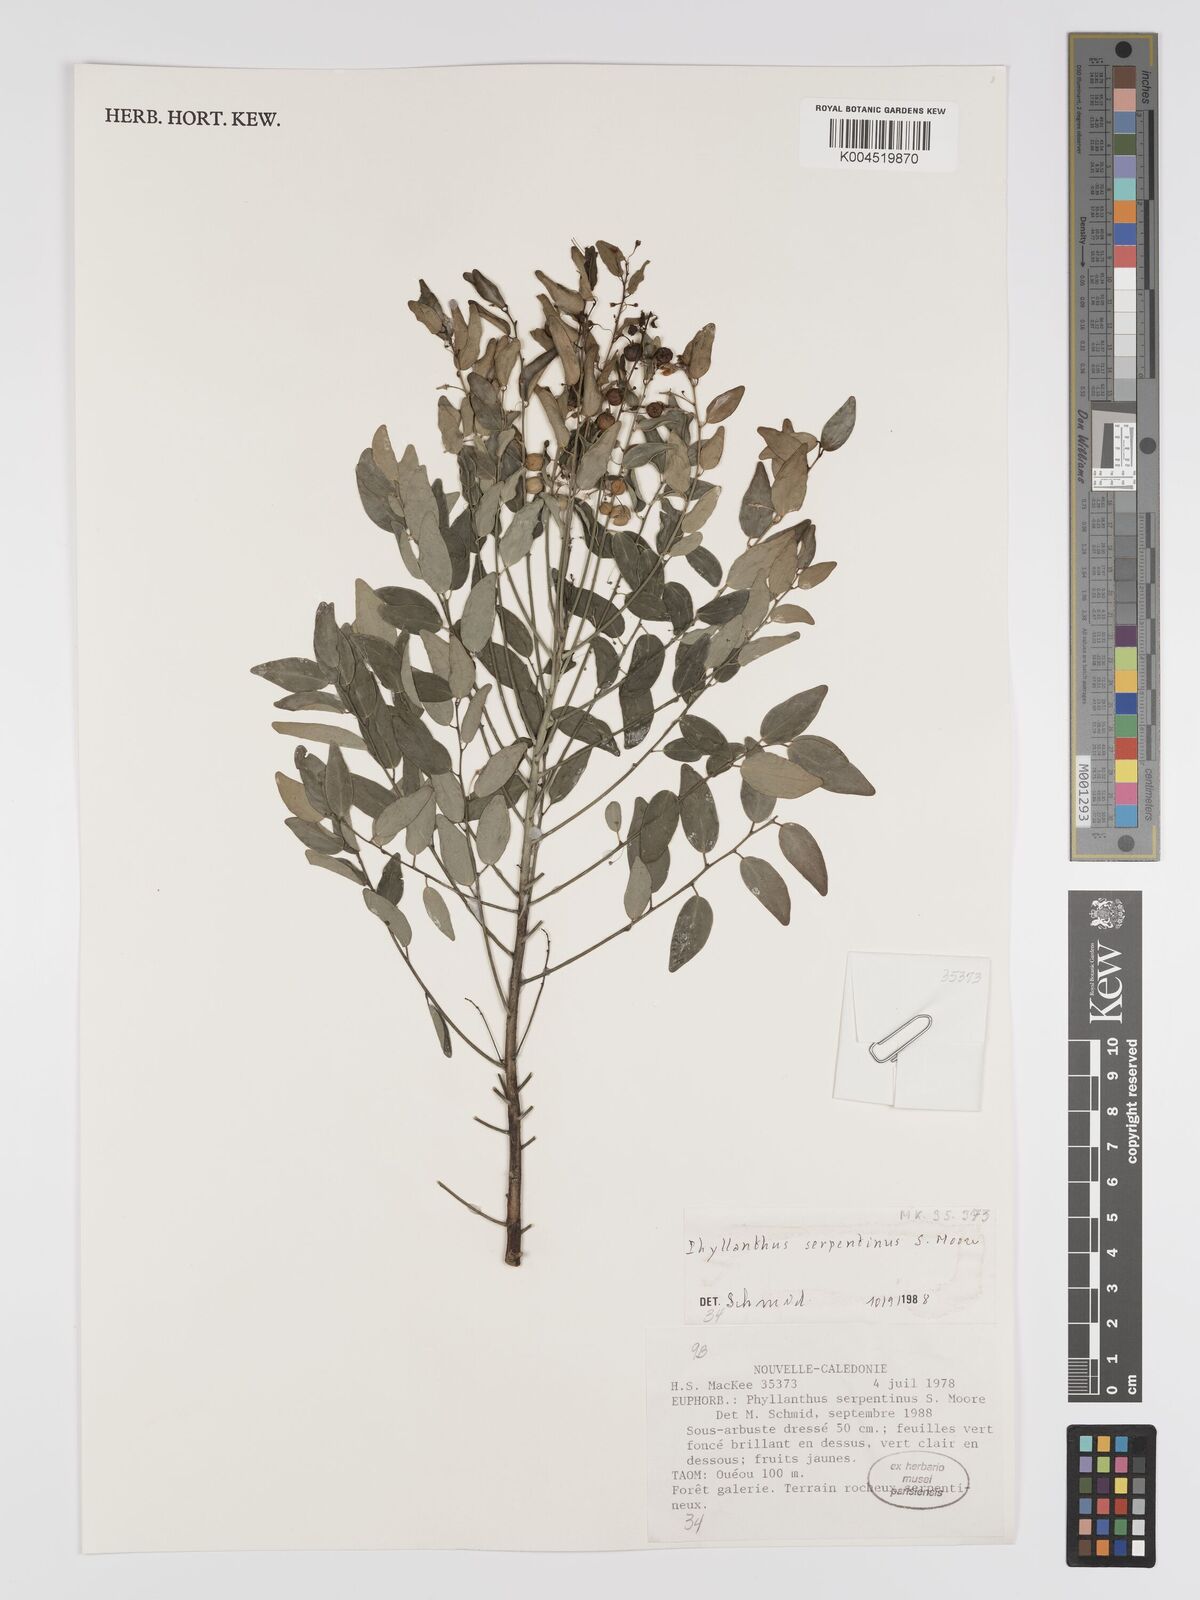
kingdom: Plantae
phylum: Tracheophyta
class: Magnoliopsida
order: Malpighiales
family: Phyllanthaceae
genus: Phyllanthus
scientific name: Phyllanthus serpentinus
